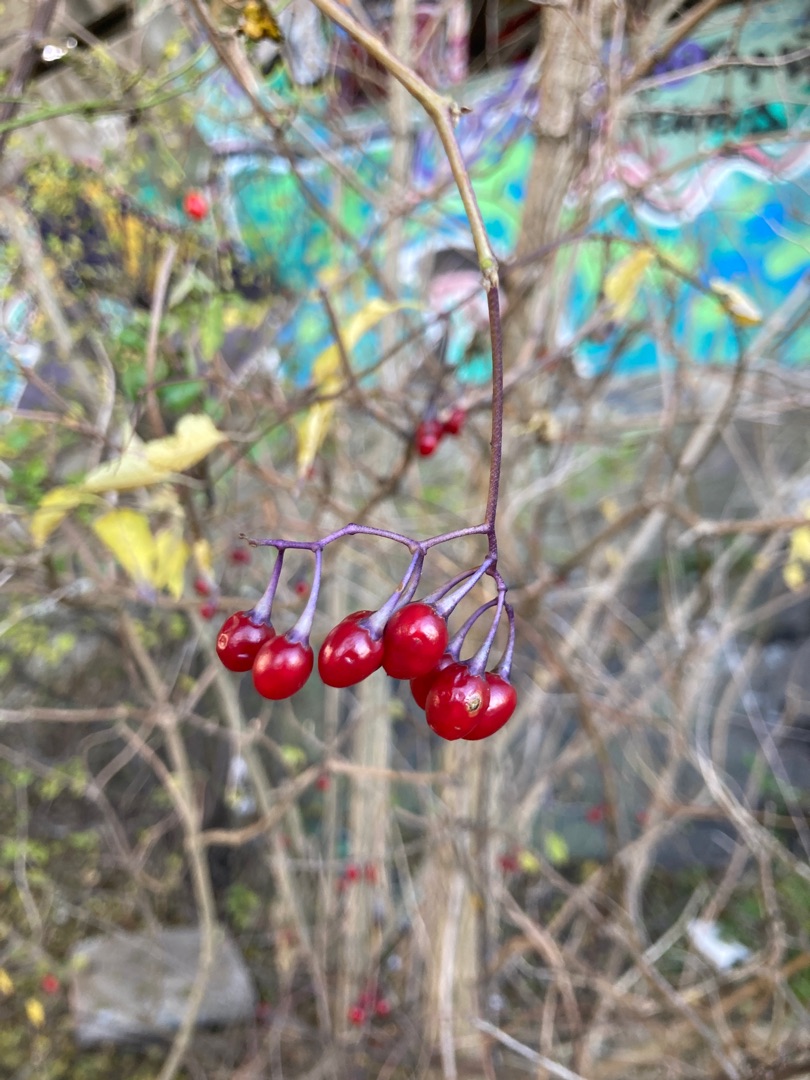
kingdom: Plantae
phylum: Tracheophyta
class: Magnoliopsida
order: Solanales
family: Solanaceae
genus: Solanum
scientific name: Solanum dulcamara
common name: Bittersød natskygge
